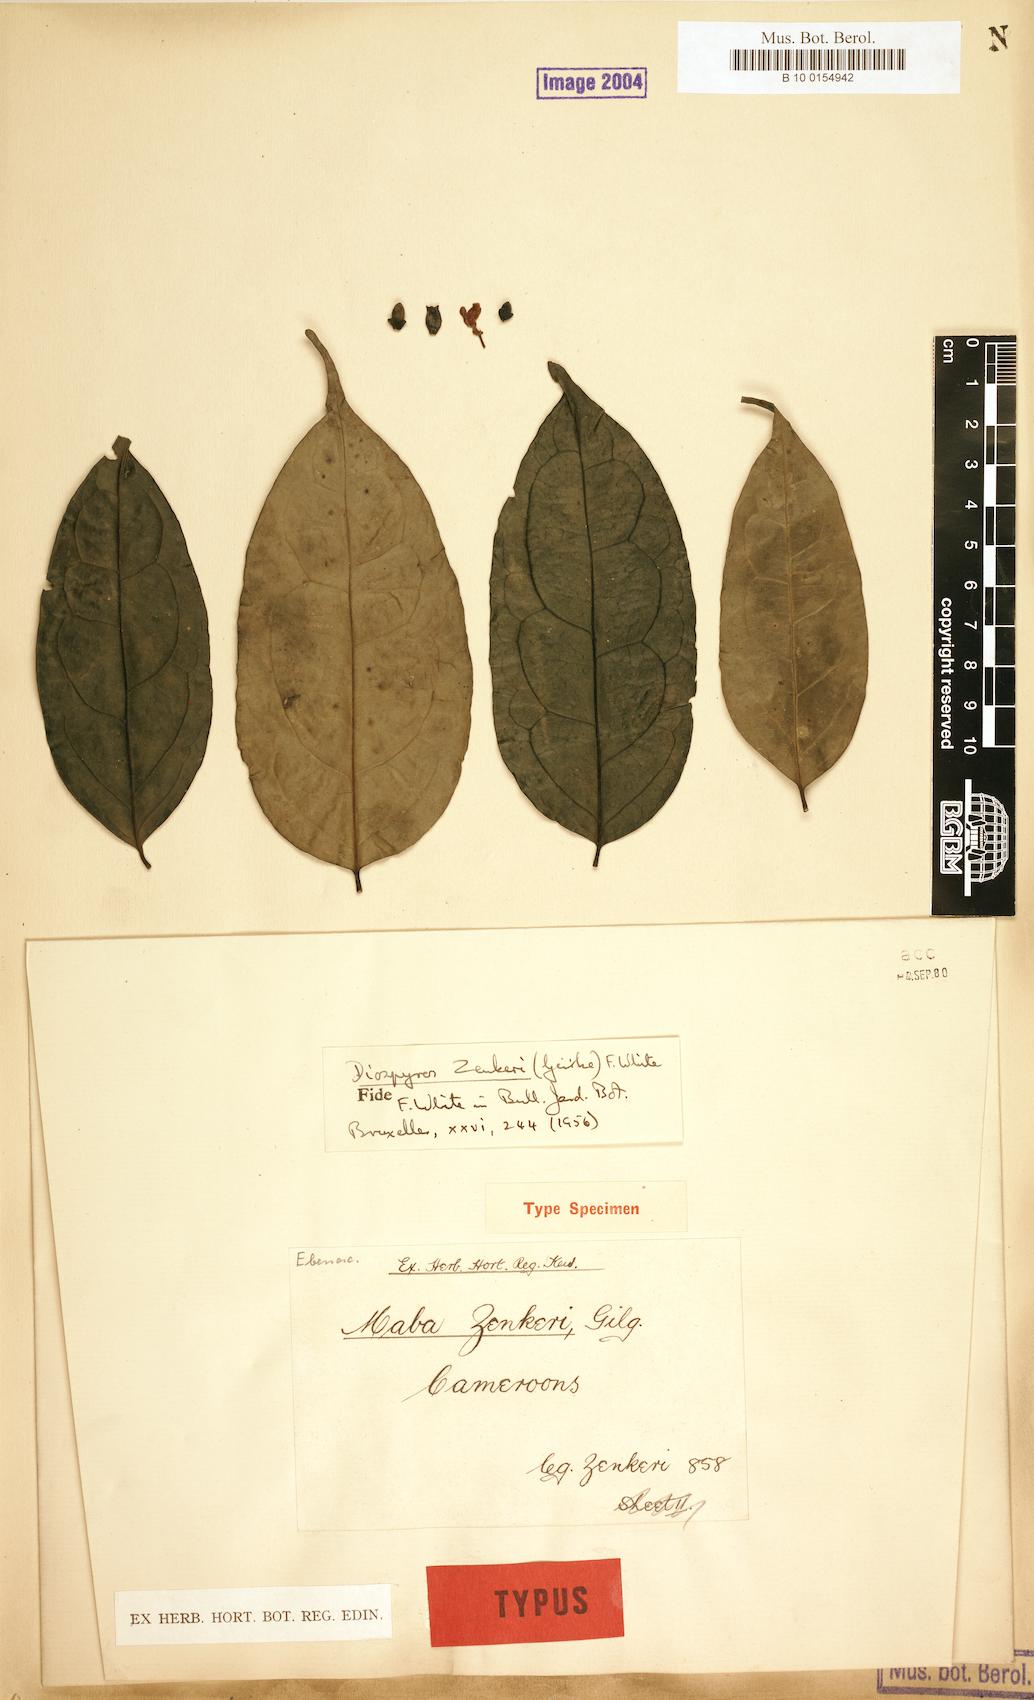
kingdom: Plantae
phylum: Tracheophyta
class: Magnoliopsida
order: Ericales
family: Ebenaceae
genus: Diospyros
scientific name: Diospyros zenkeri
